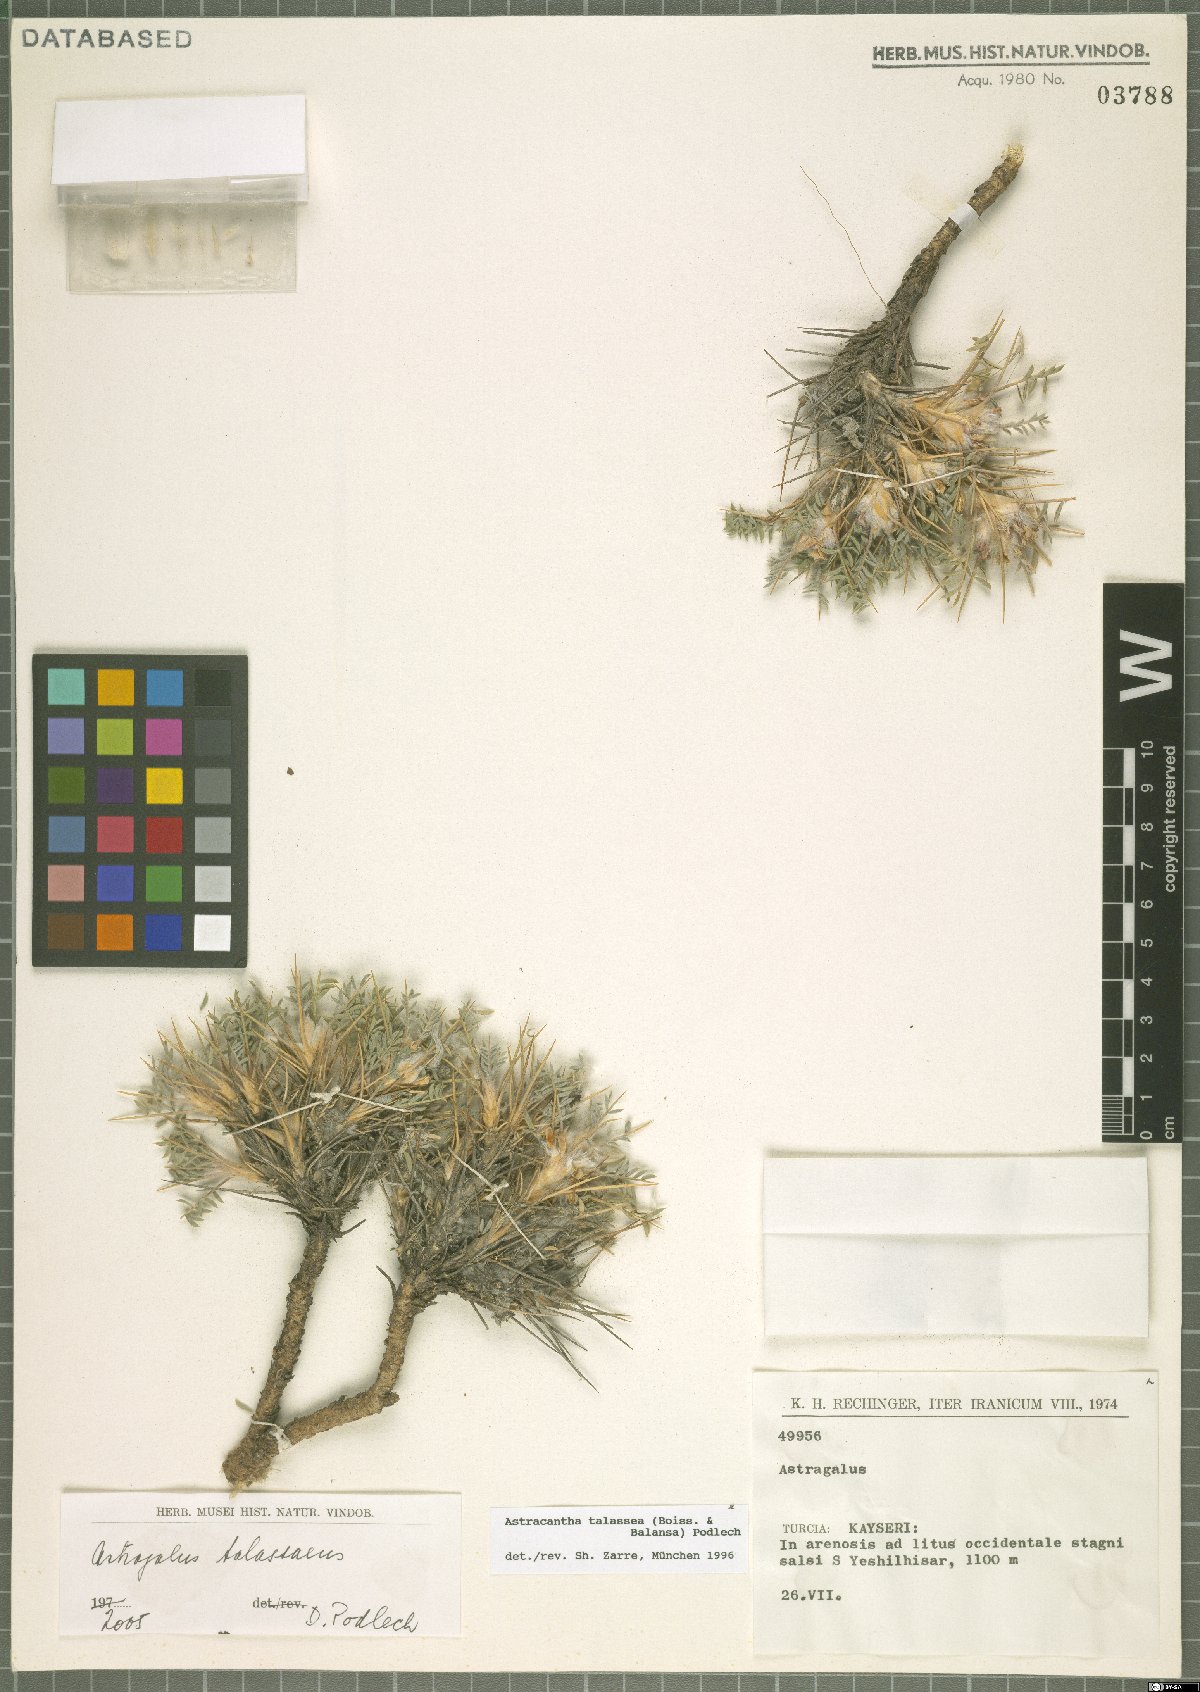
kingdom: Plantae
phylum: Tracheophyta
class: Magnoliopsida
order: Fabales
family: Fabaceae
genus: Astragalus
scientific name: Astragalus talasseus
